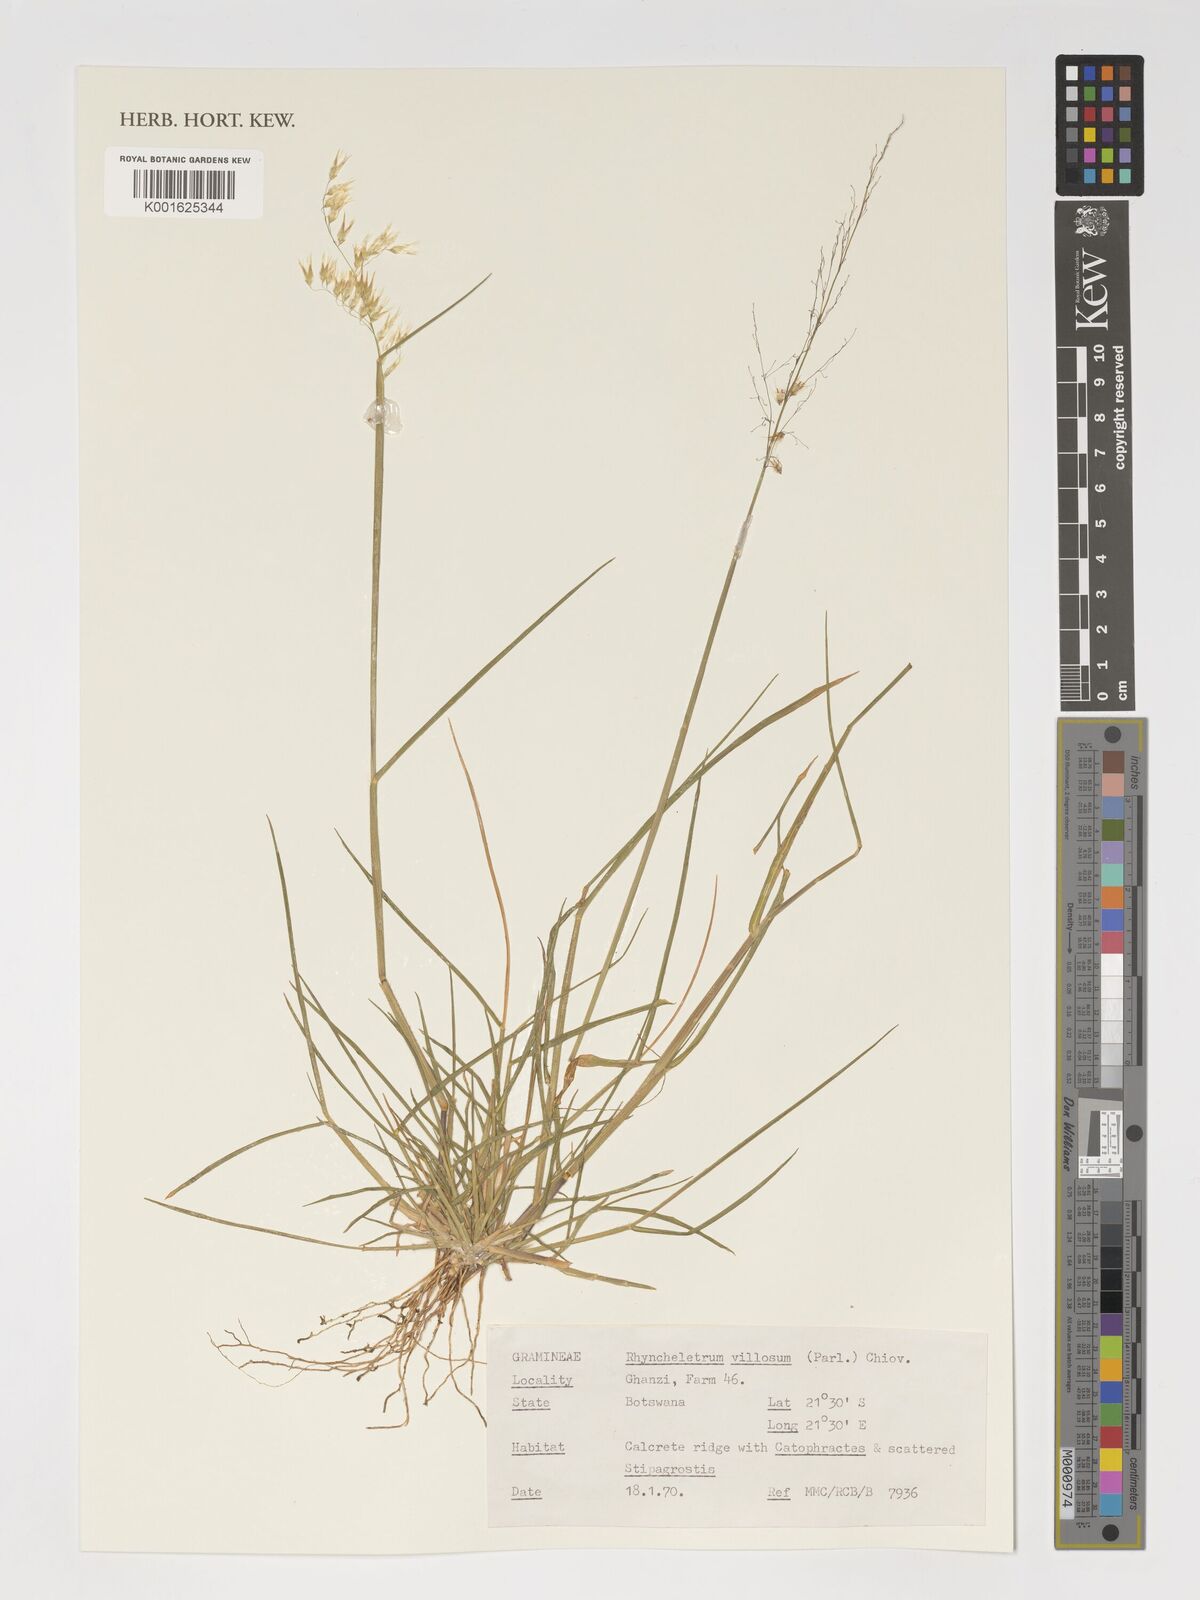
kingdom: Plantae
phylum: Tracheophyta
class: Liliopsida
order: Poales
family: Poaceae
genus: Melinis
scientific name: Melinis
